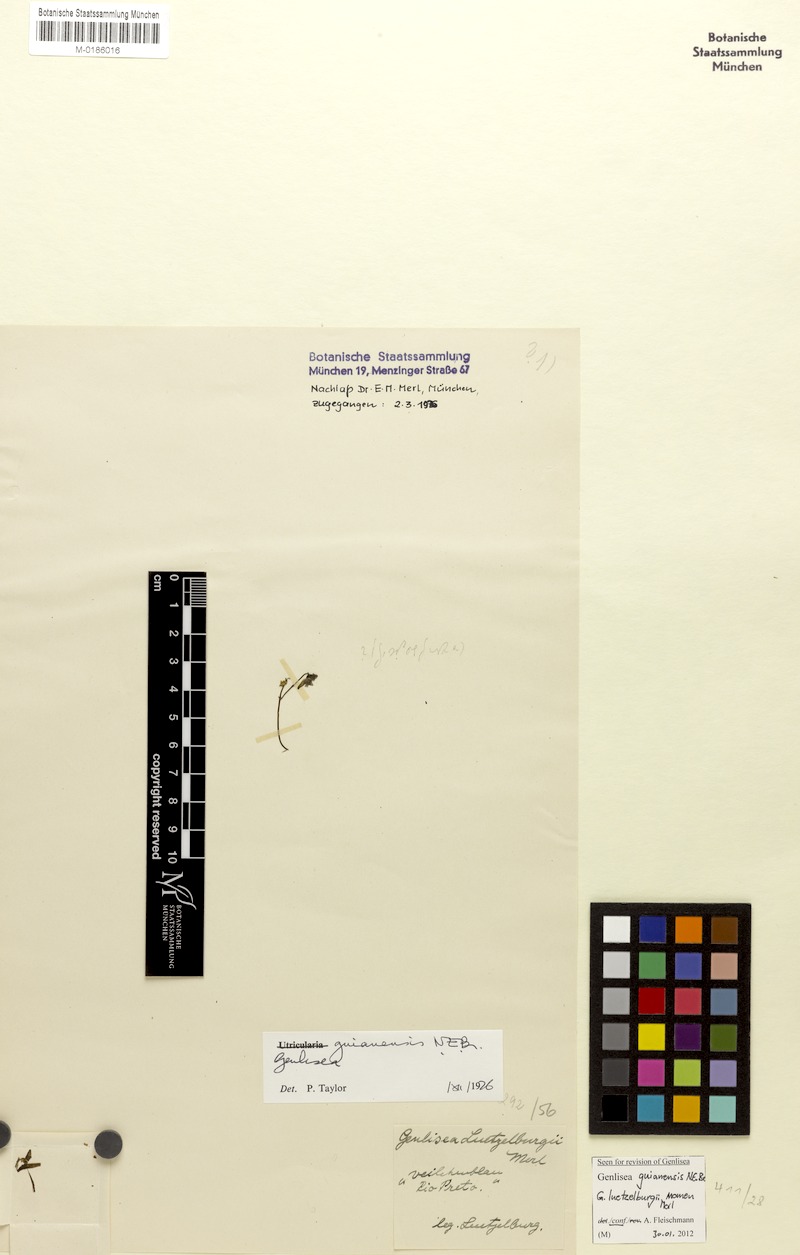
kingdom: Plantae
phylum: Tracheophyta
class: Magnoliopsida
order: Lamiales
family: Lentibulariaceae
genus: Genlisea
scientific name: Genlisea guianensis
